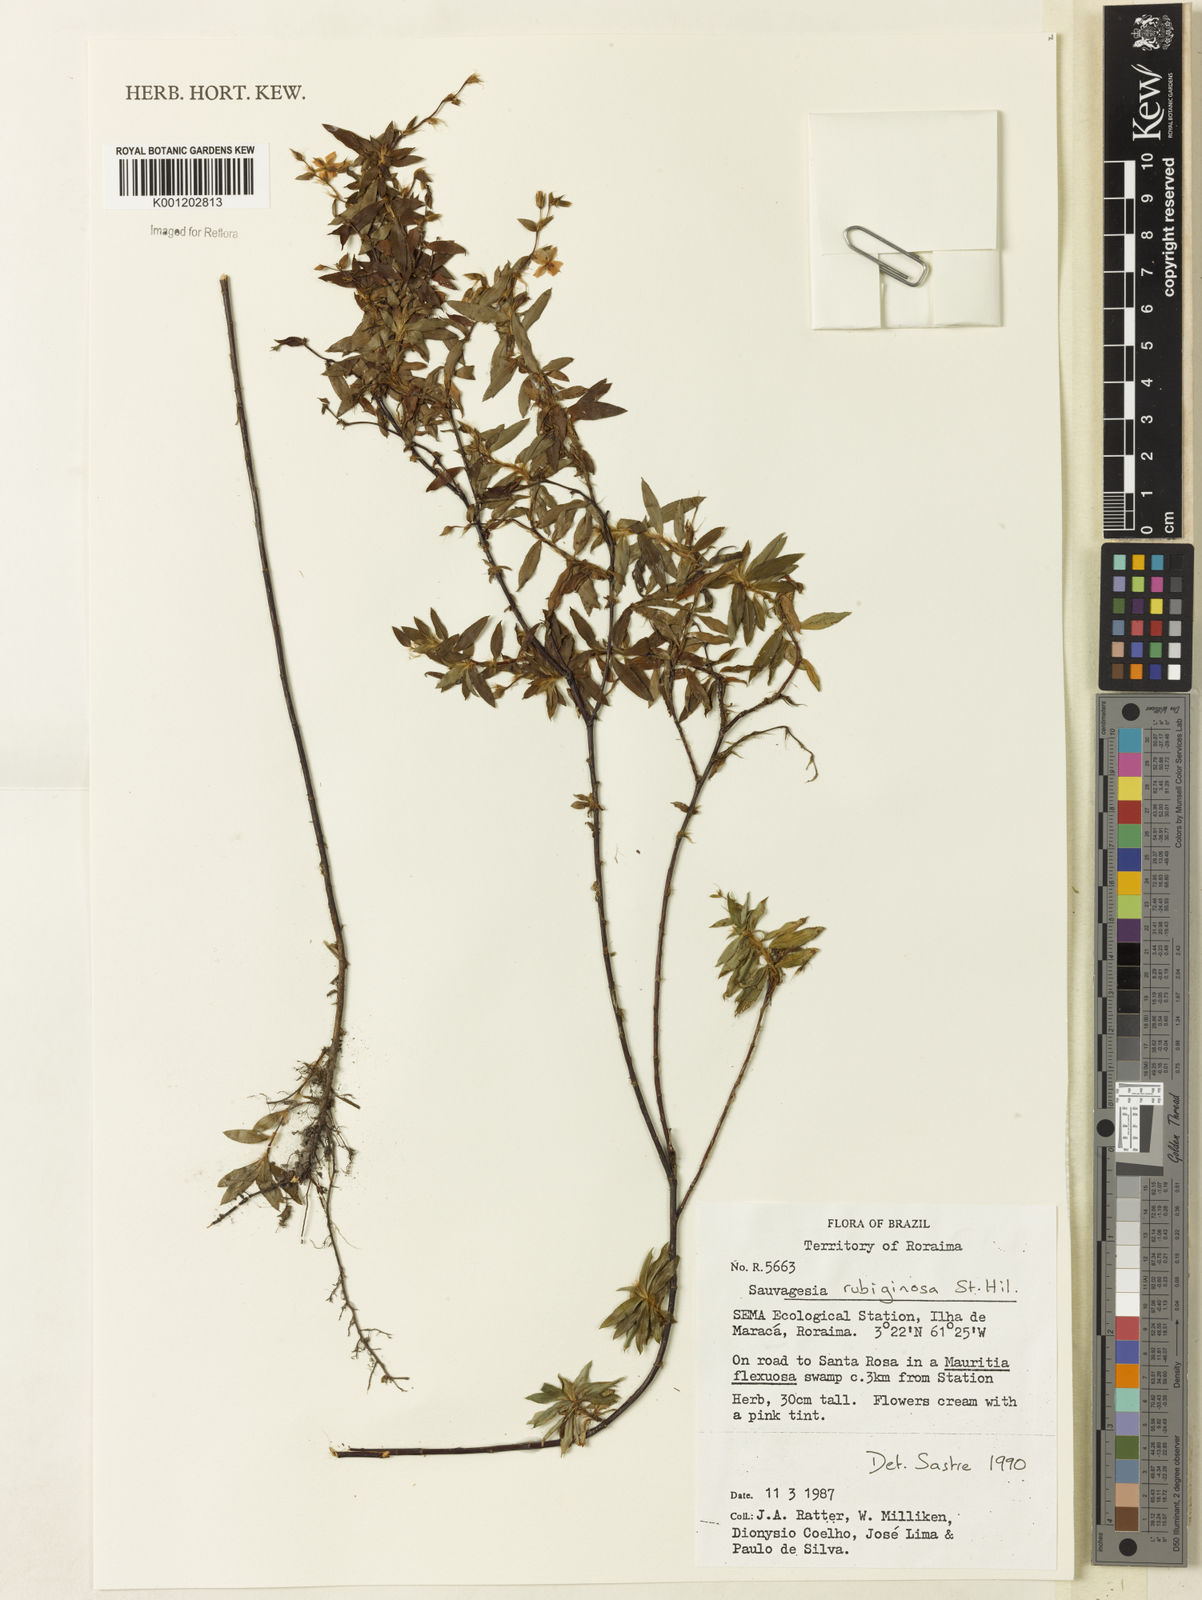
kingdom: Plantae
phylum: Tracheophyta
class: Magnoliopsida
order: Malpighiales
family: Ochnaceae
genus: Sauvagesia
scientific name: Sauvagesia rubiginosa
